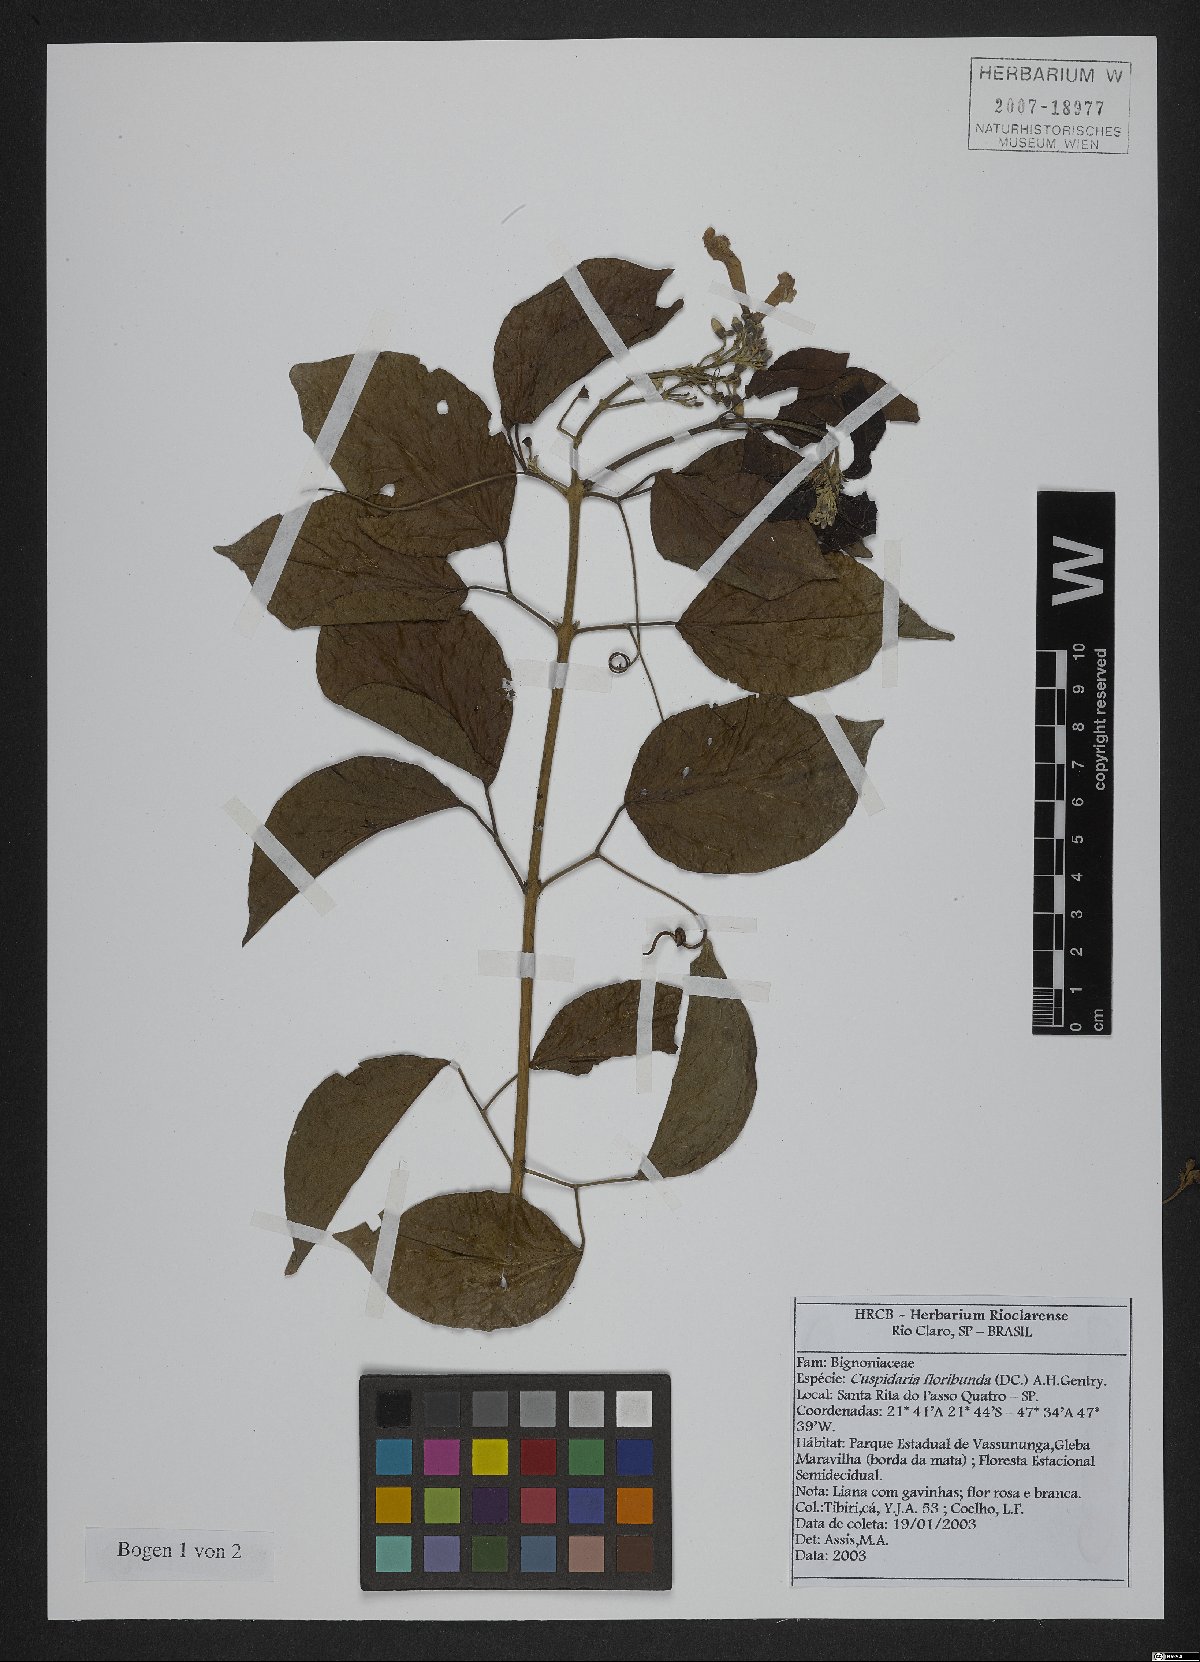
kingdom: Plantae
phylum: Tracheophyta
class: Magnoliopsida
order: Lamiales
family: Bignoniaceae
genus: Cuspidaria
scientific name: Cuspidaria floribunda
